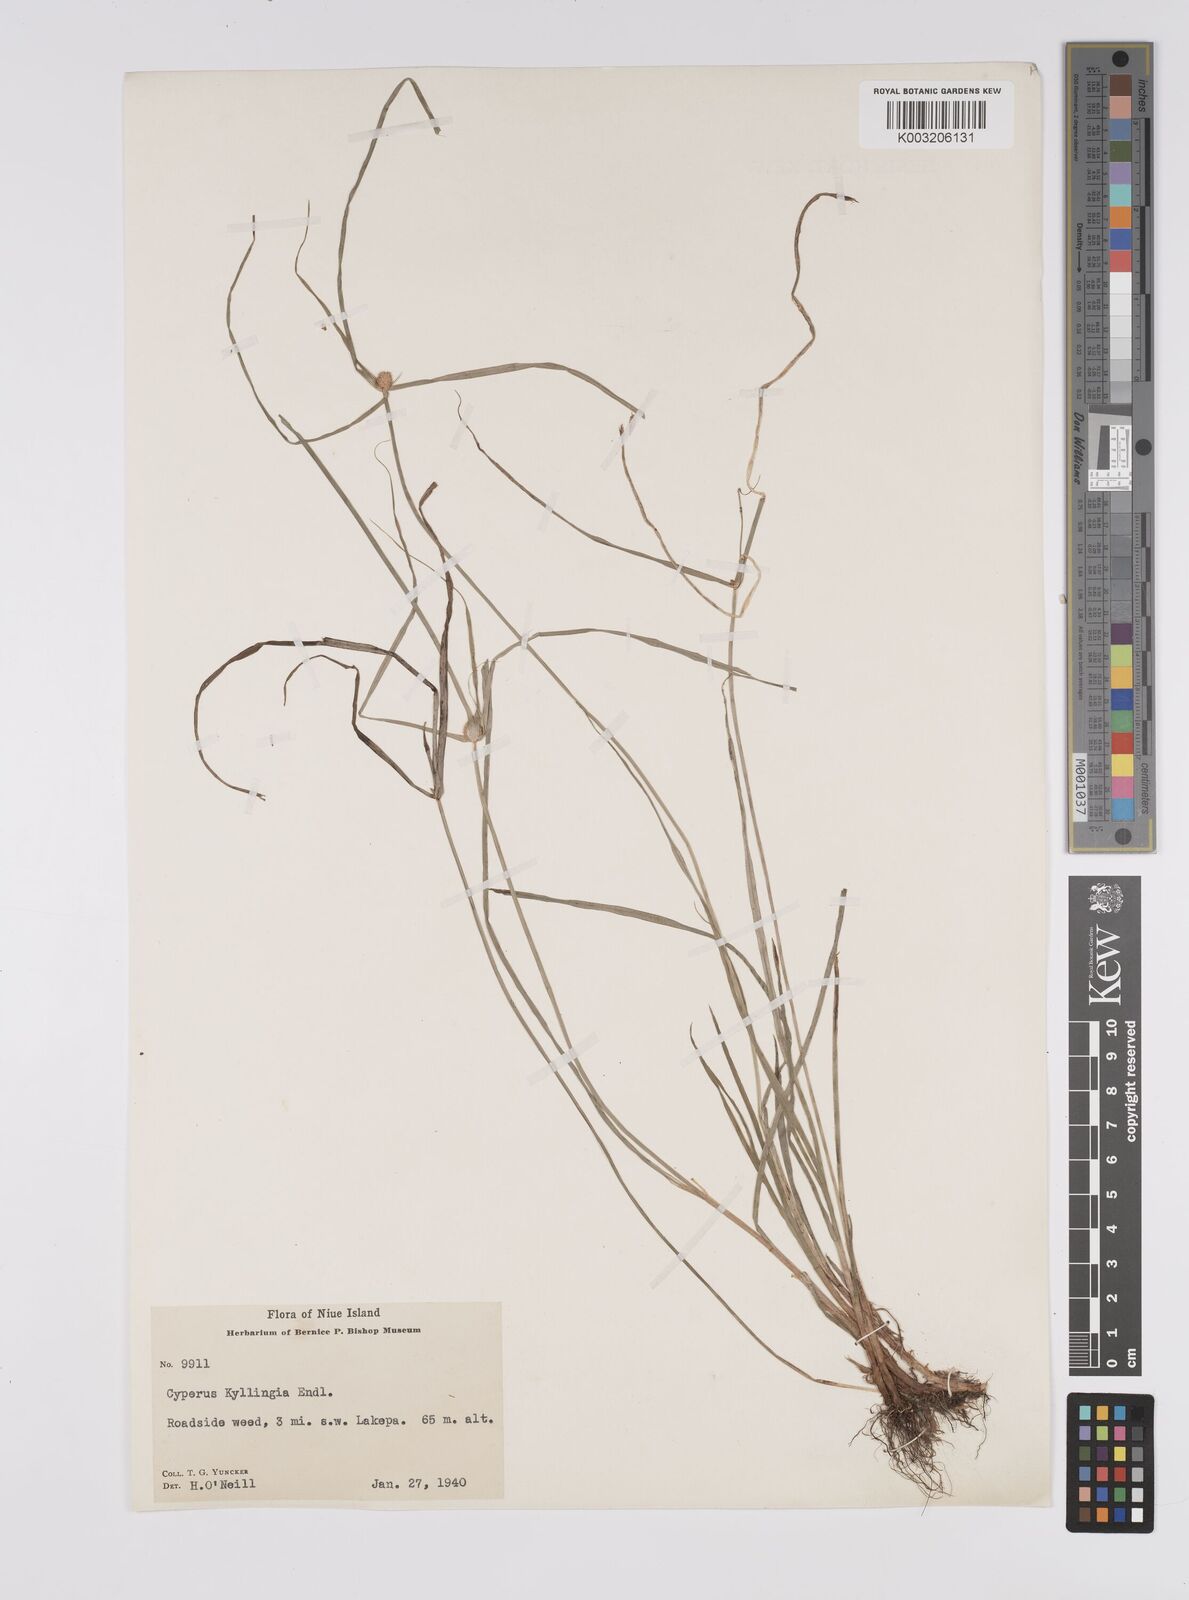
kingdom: Plantae
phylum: Tracheophyta
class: Liliopsida
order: Poales
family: Cyperaceae
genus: Cyperus
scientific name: Cyperus nemoralis
